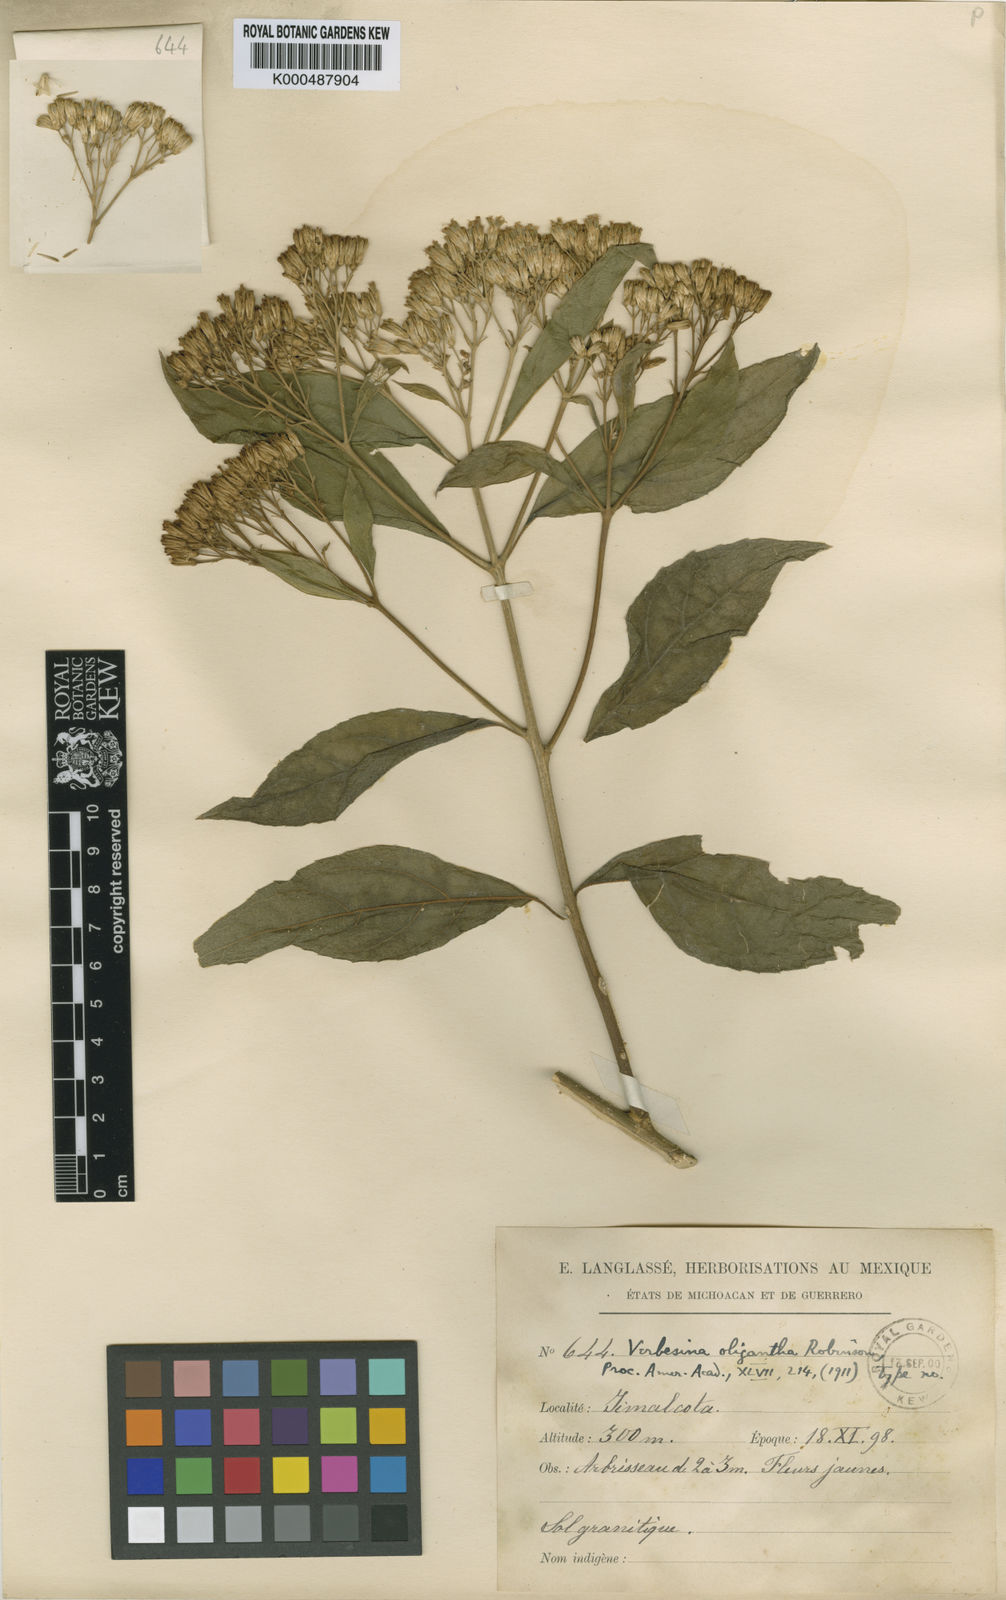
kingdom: Plantae
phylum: Tracheophyta
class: Magnoliopsida
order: Asterales
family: Asteraceae
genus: Verbesina
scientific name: Verbesina oligantha
